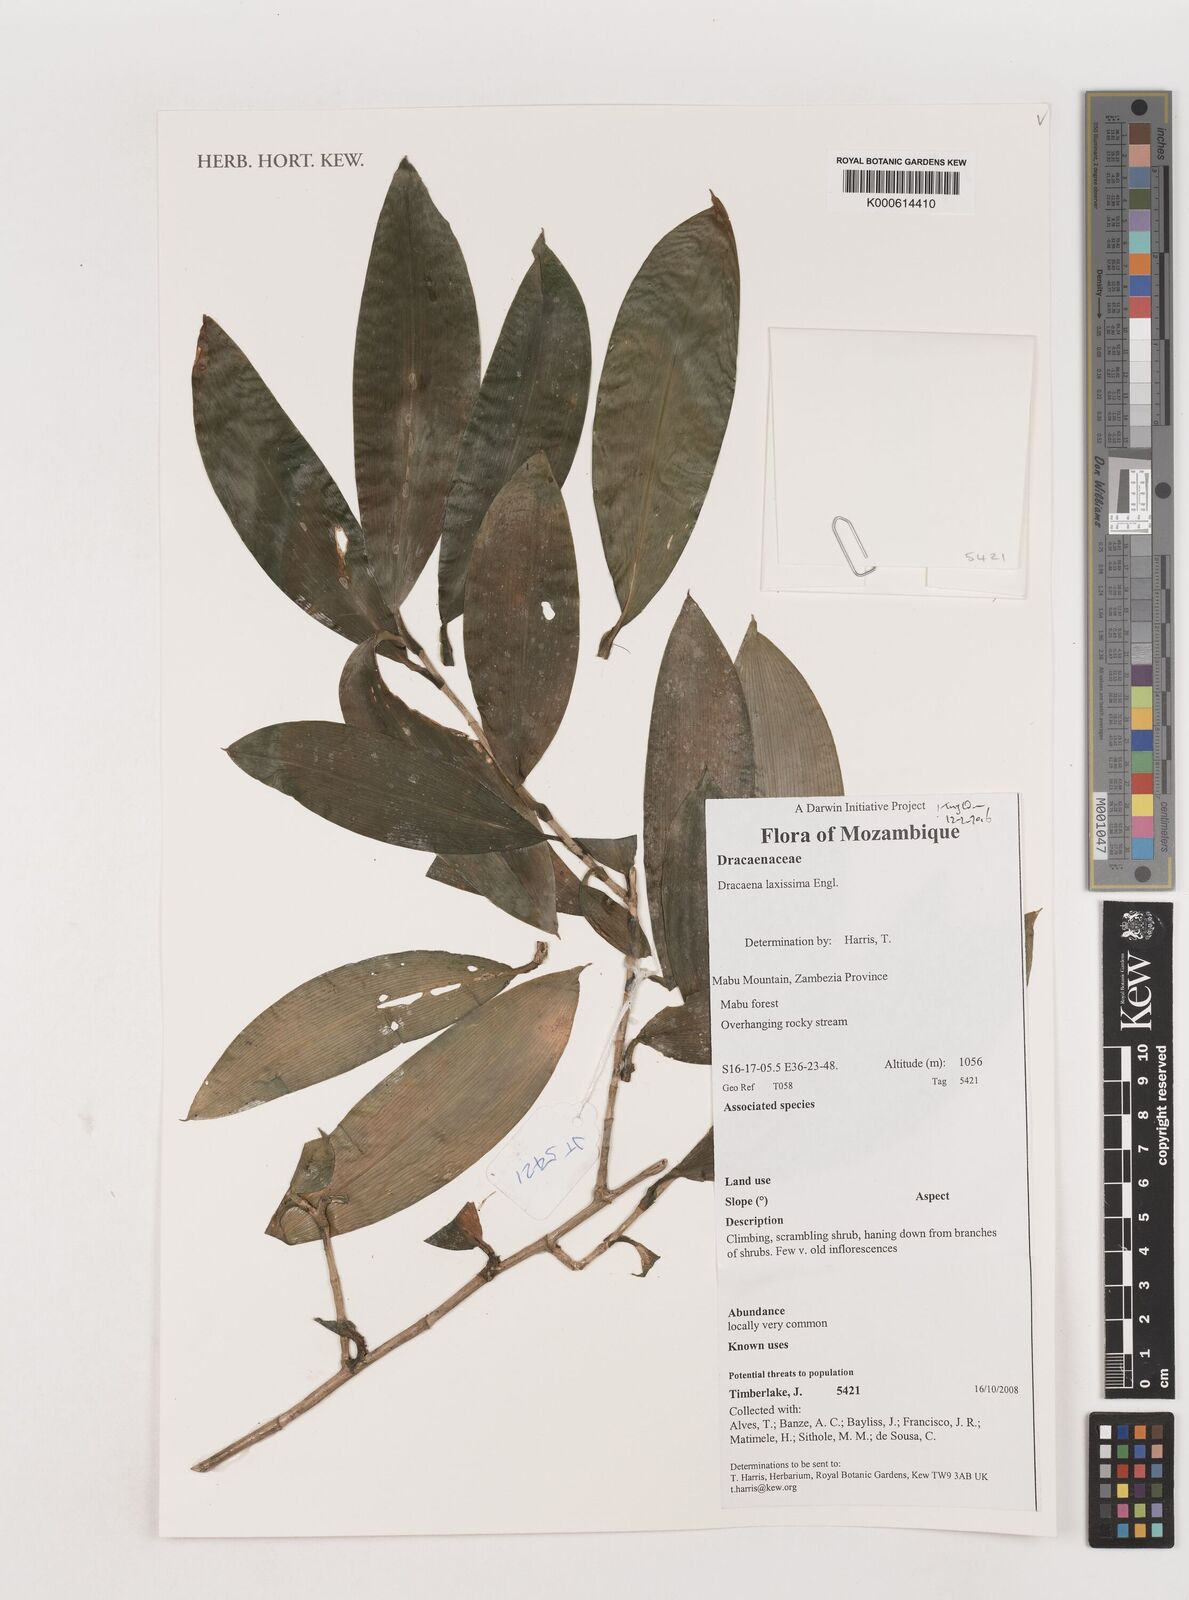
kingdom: Plantae
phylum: Tracheophyta
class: Liliopsida
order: Asparagales
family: Asparagaceae
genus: Dracaena
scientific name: Dracaena laxissima
